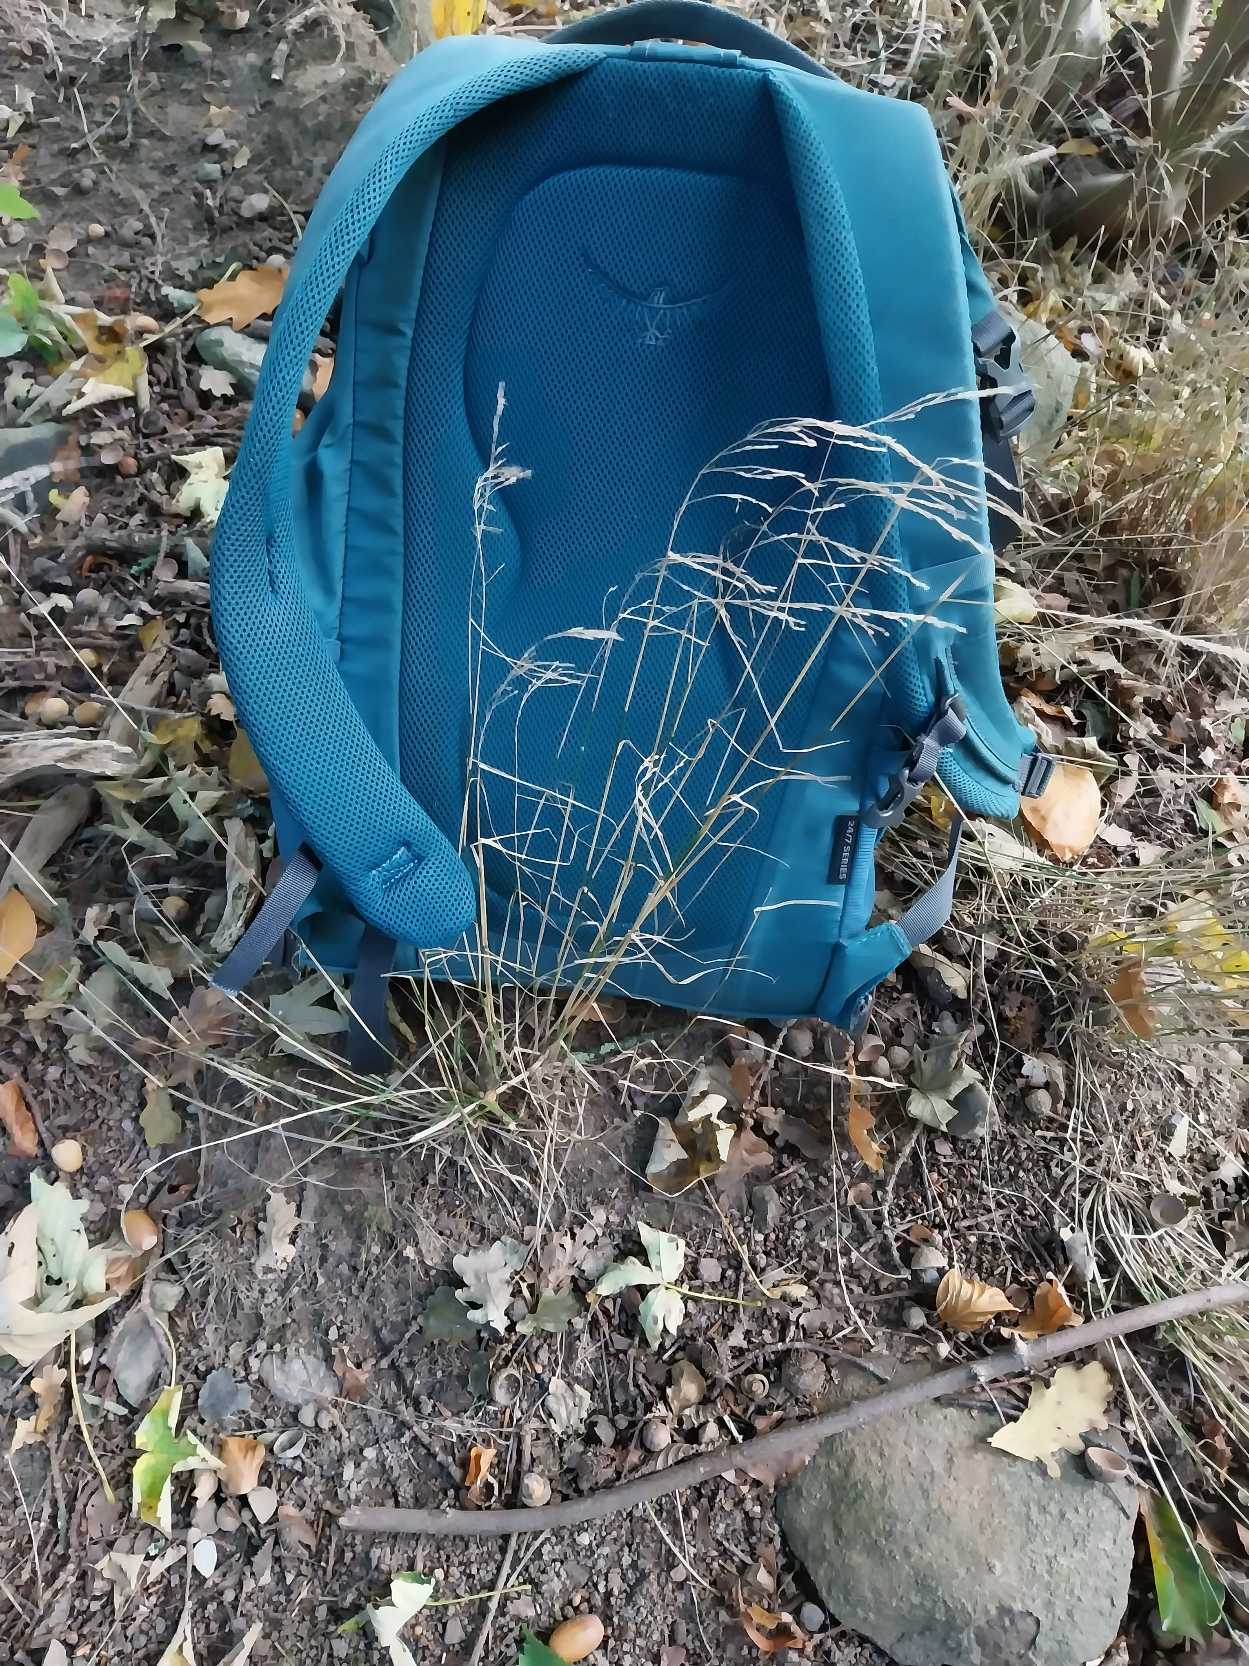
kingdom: Plantae
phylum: Tracheophyta
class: Liliopsida
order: Poales
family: Poaceae
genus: Poa
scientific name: Poa nemoralis
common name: Lund-rapgræs
